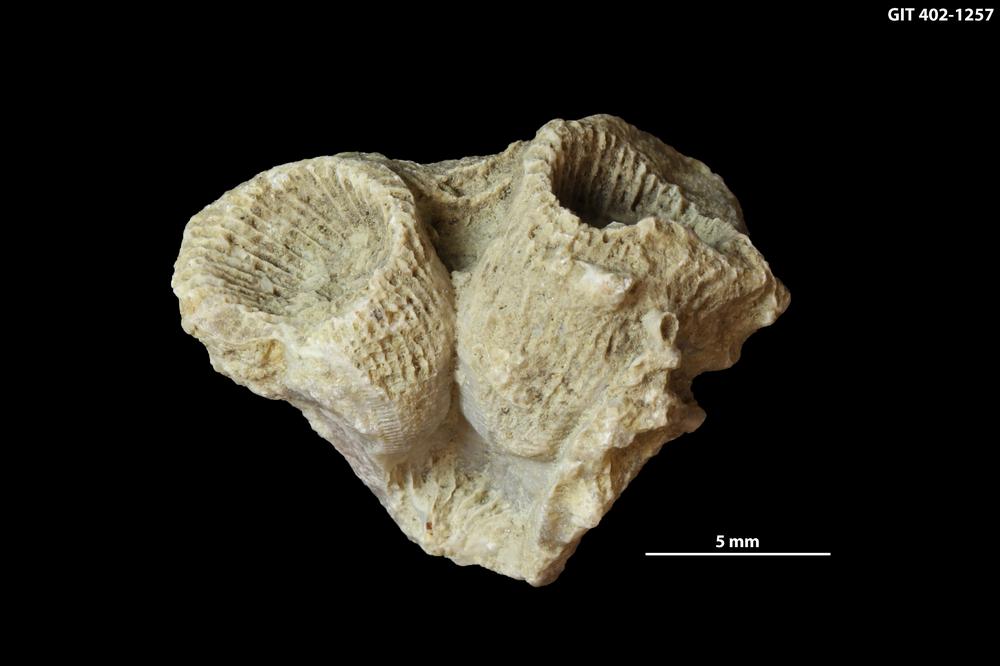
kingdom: Animalia
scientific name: Animalia
